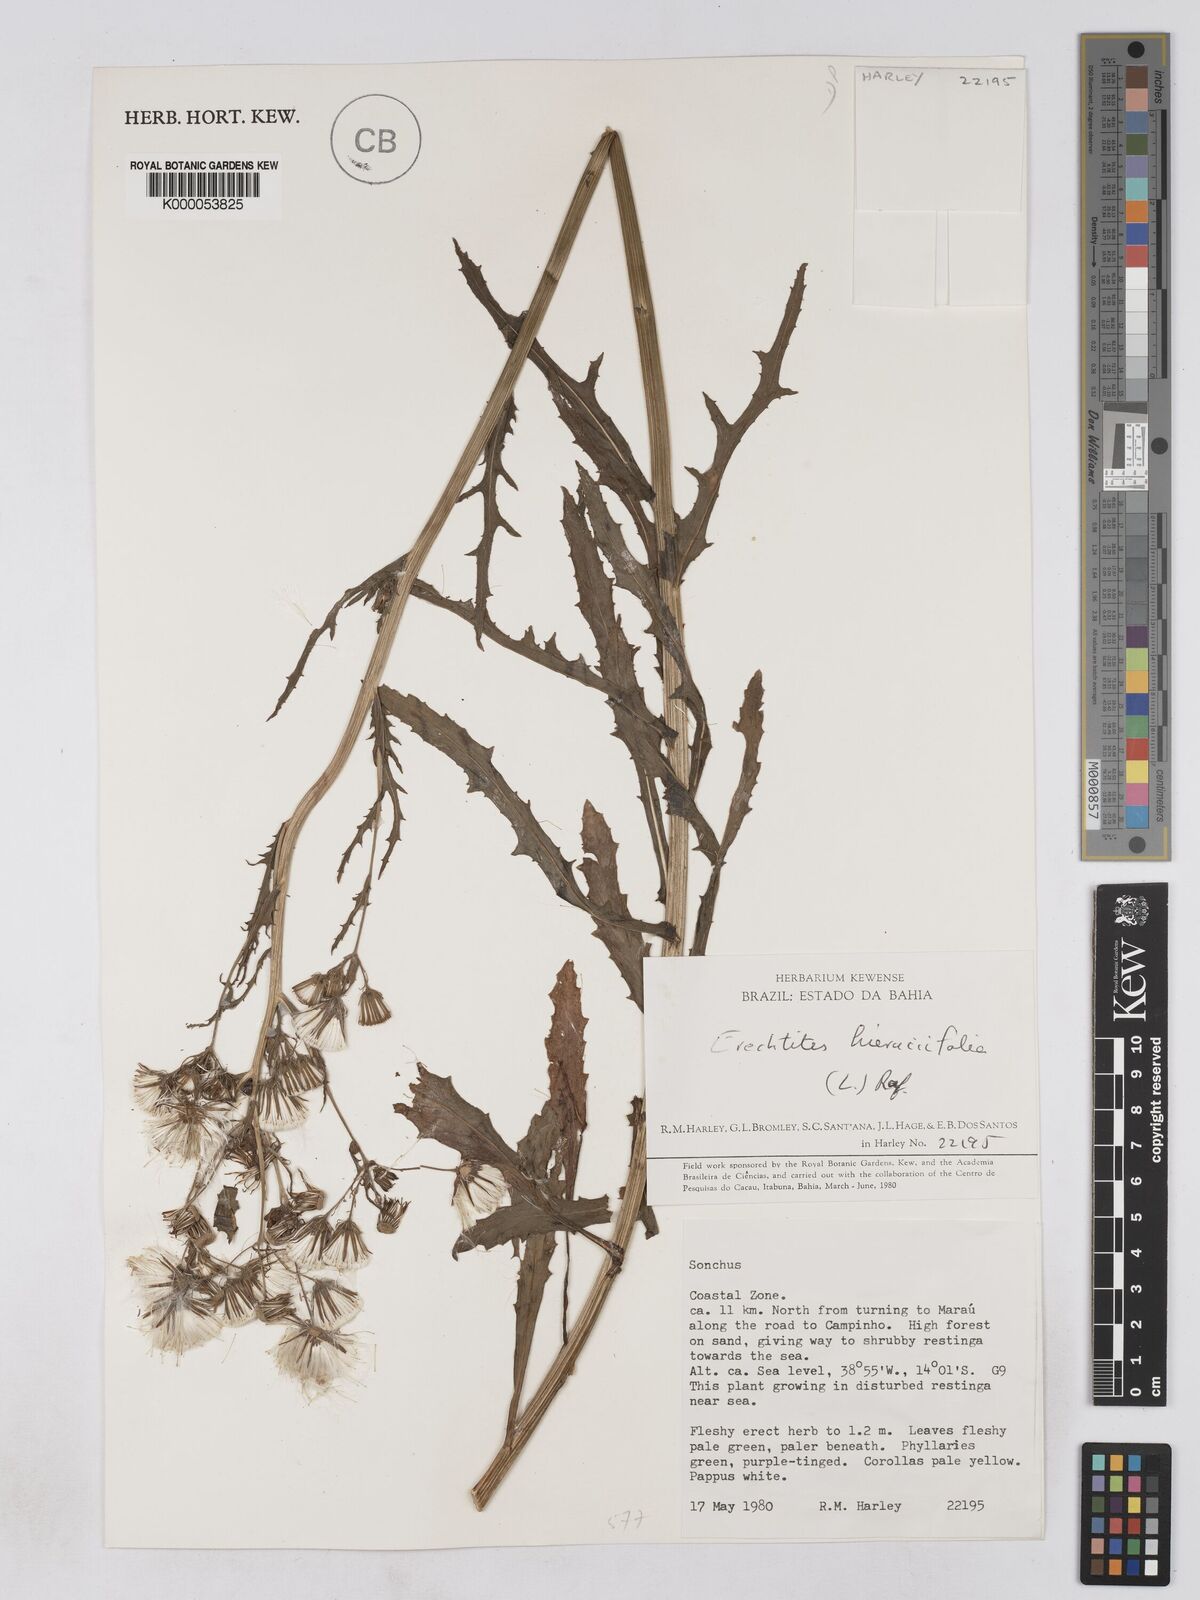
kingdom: Plantae
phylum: Tracheophyta
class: Magnoliopsida
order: Asterales
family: Asteraceae
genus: Erechtites
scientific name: Erechtites hieraciifolius
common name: American burnweed
